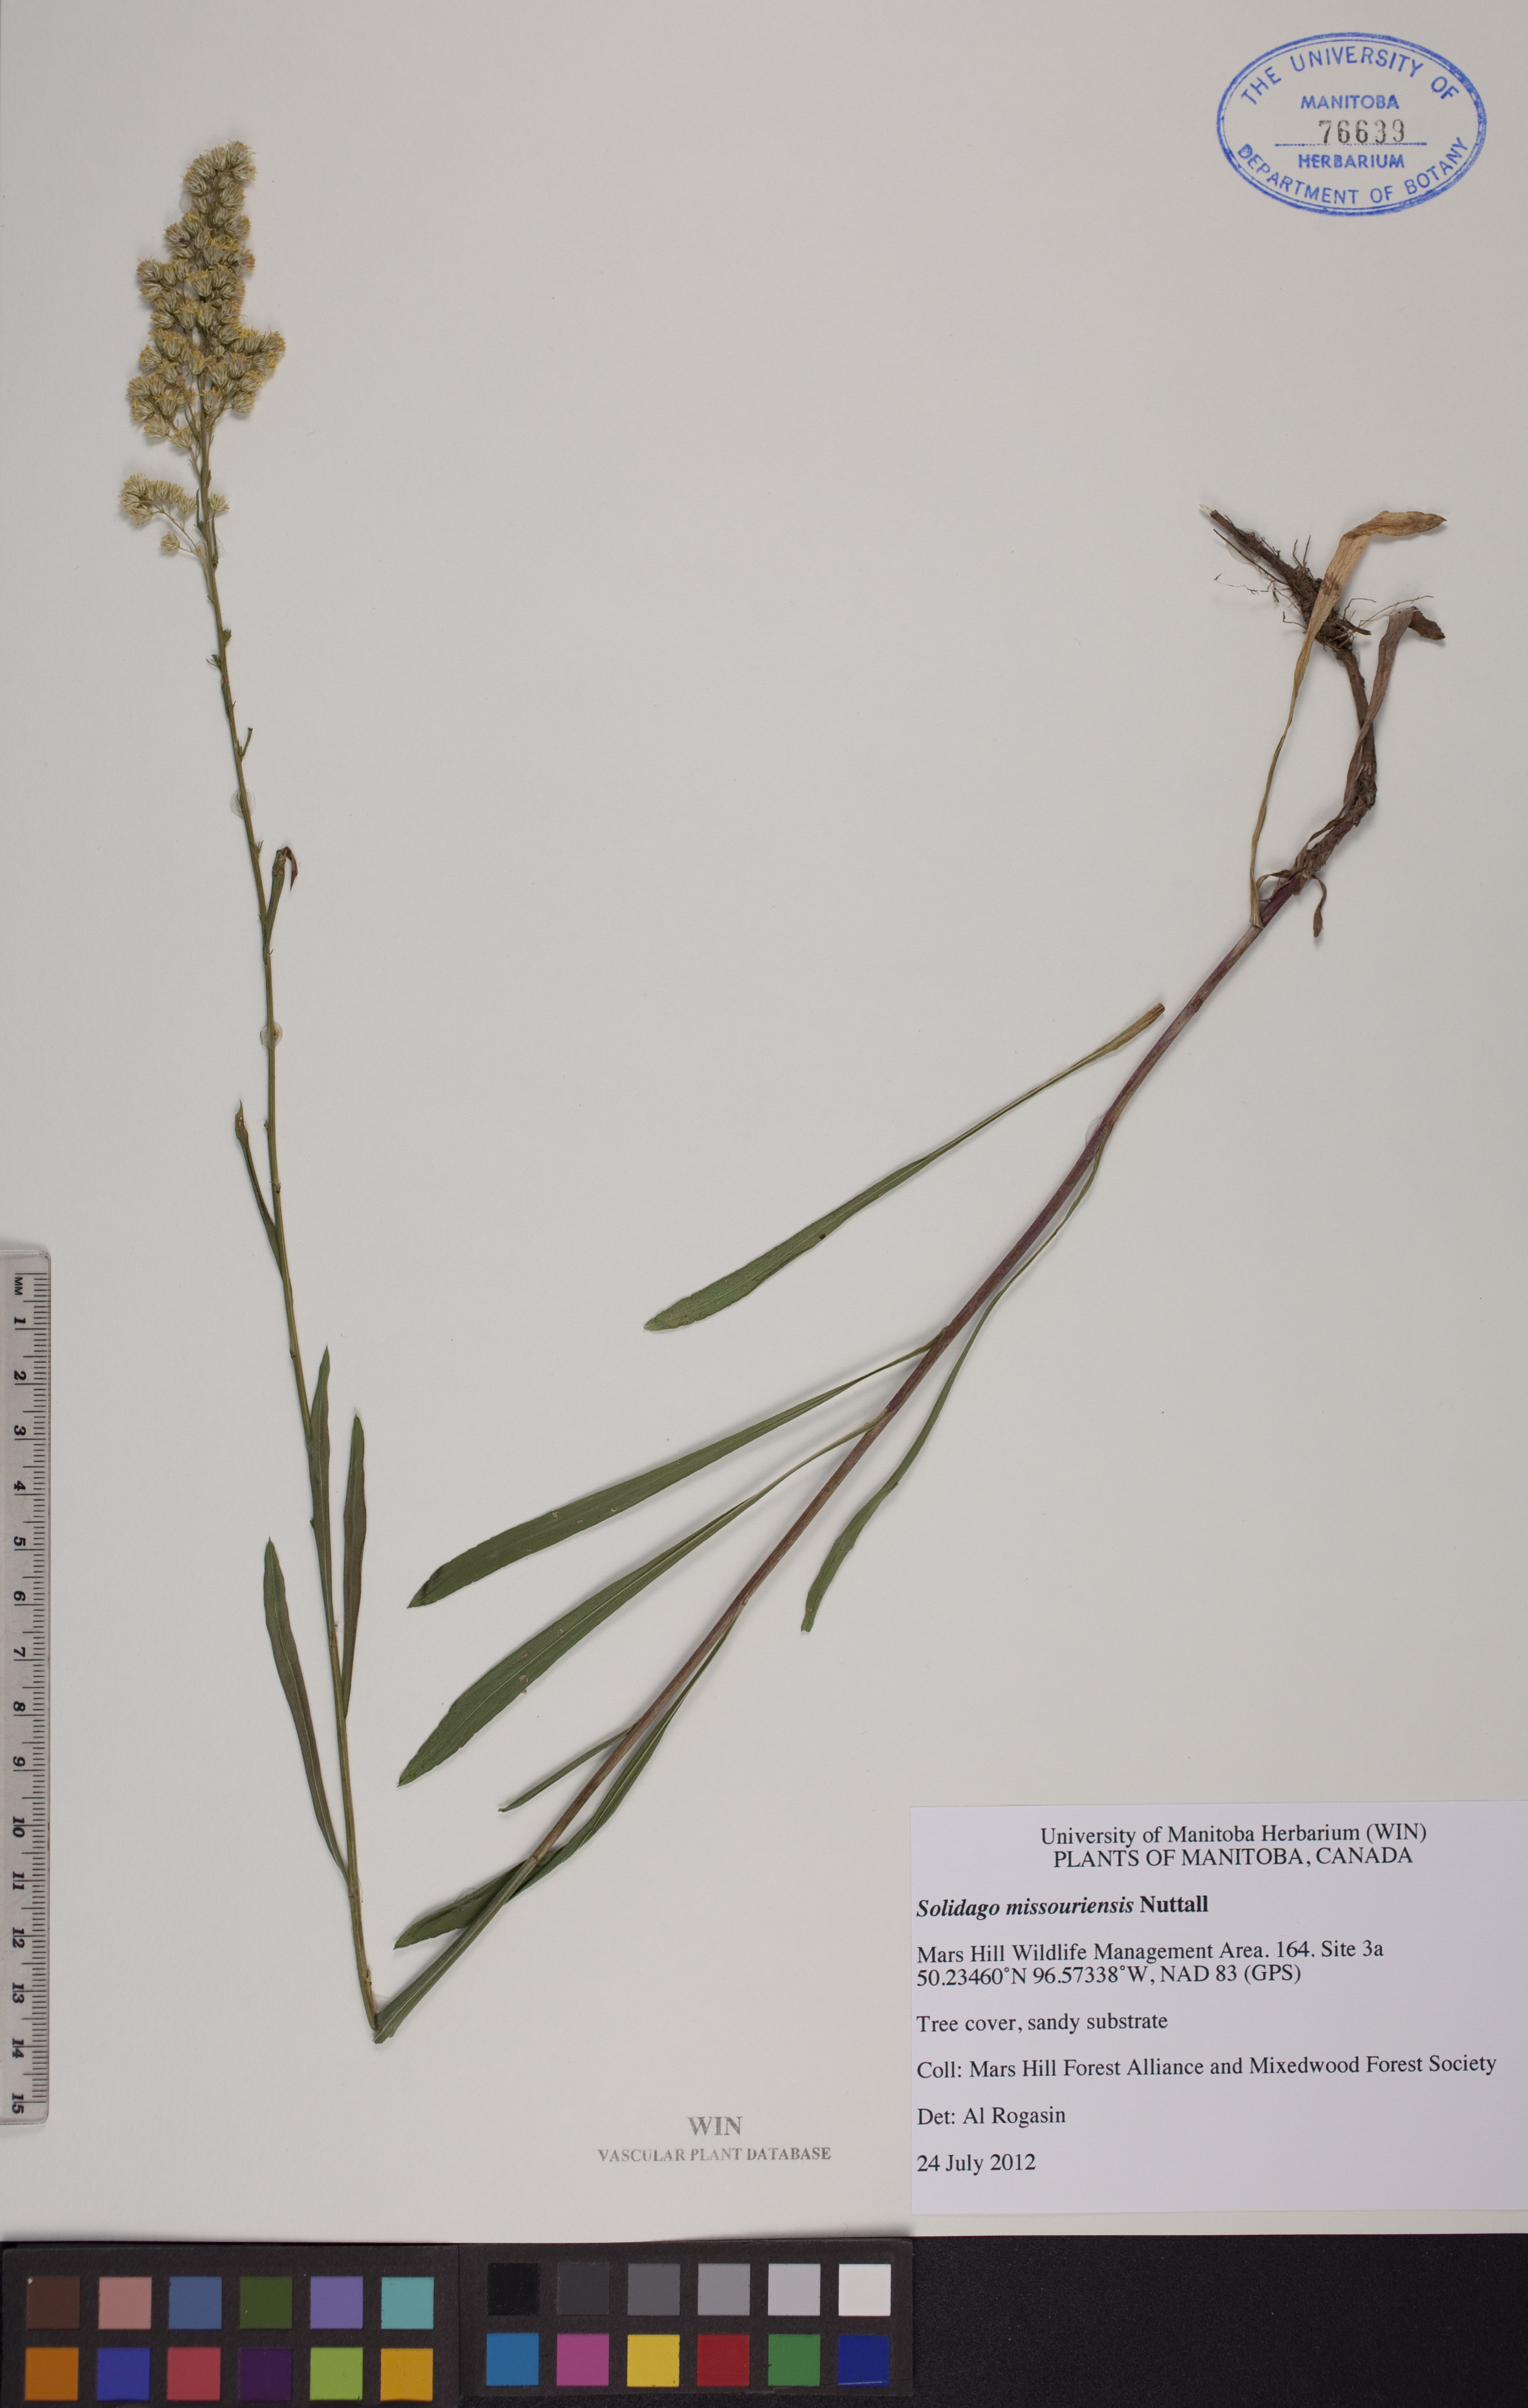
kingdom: Plantae
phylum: Tracheophyta
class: Magnoliopsida
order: Asterales
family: Asteraceae
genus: Solidago
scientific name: Solidago missouriensis
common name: Prairie goldenrod
